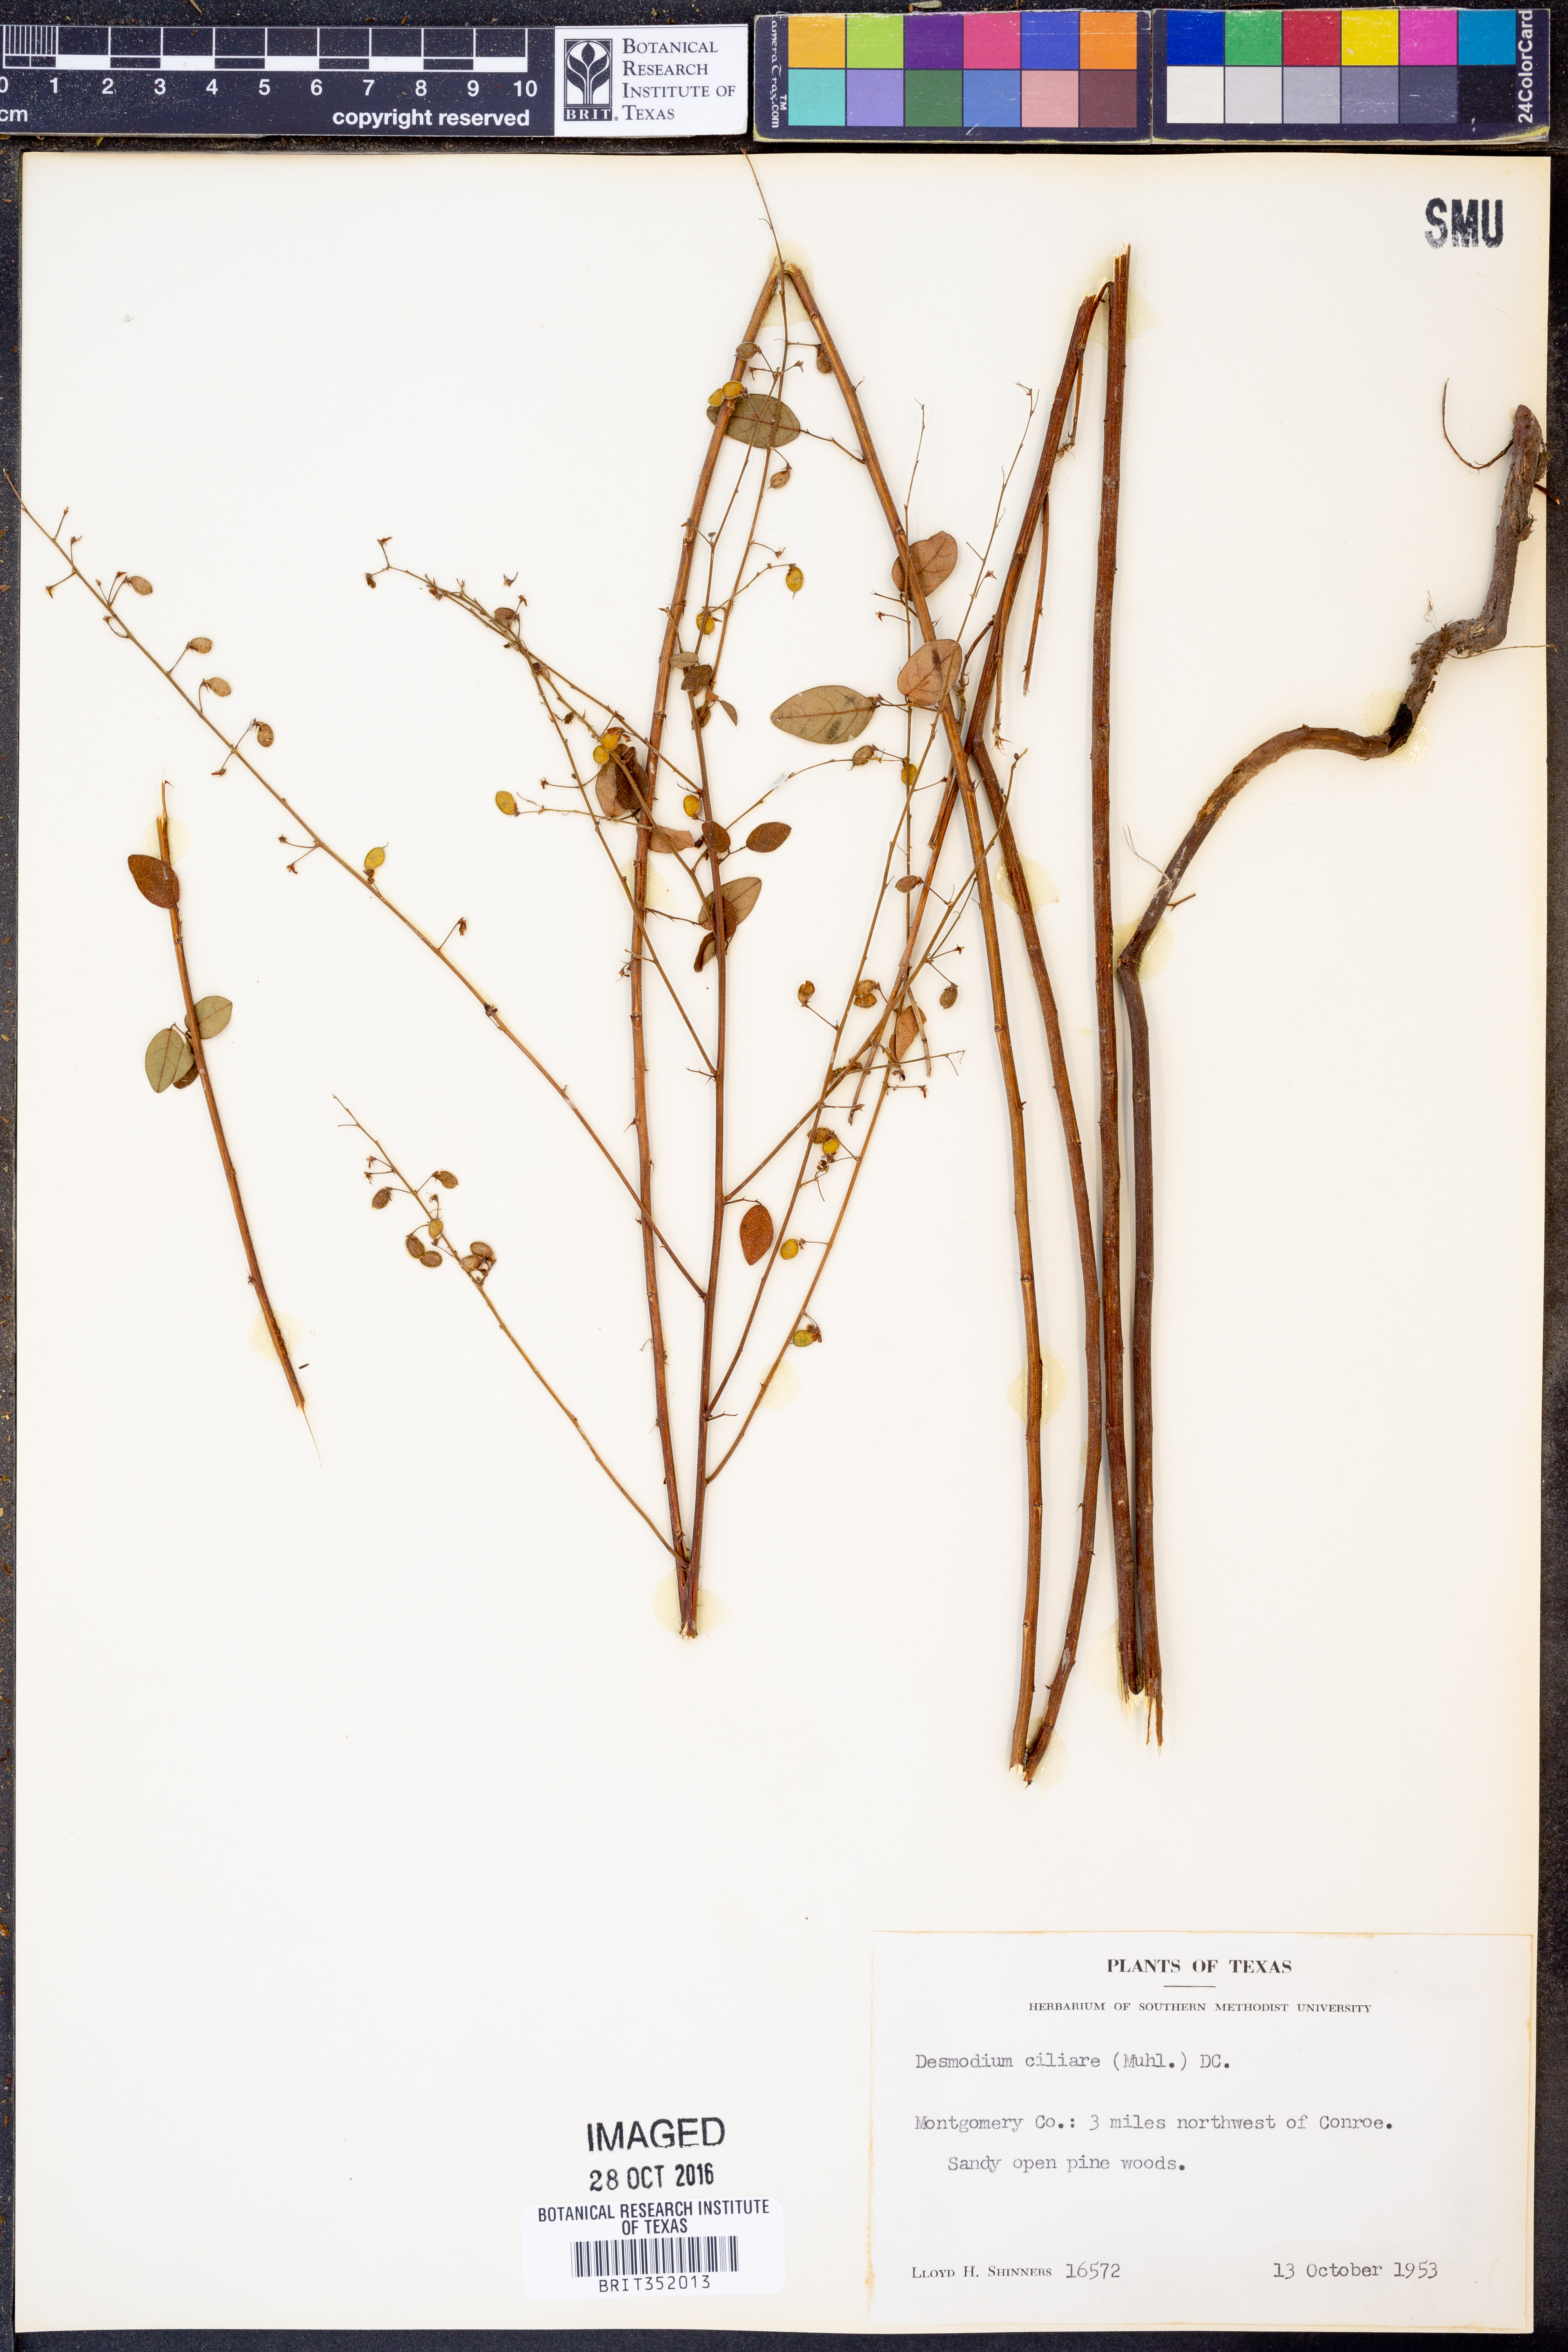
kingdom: Plantae
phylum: Tracheophyta
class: Magnoliopsida
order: Fabales
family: Fabaceae
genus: Desmodium
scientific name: Desmodium ciliare
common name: Hairy small-leaf ticktrefoil
